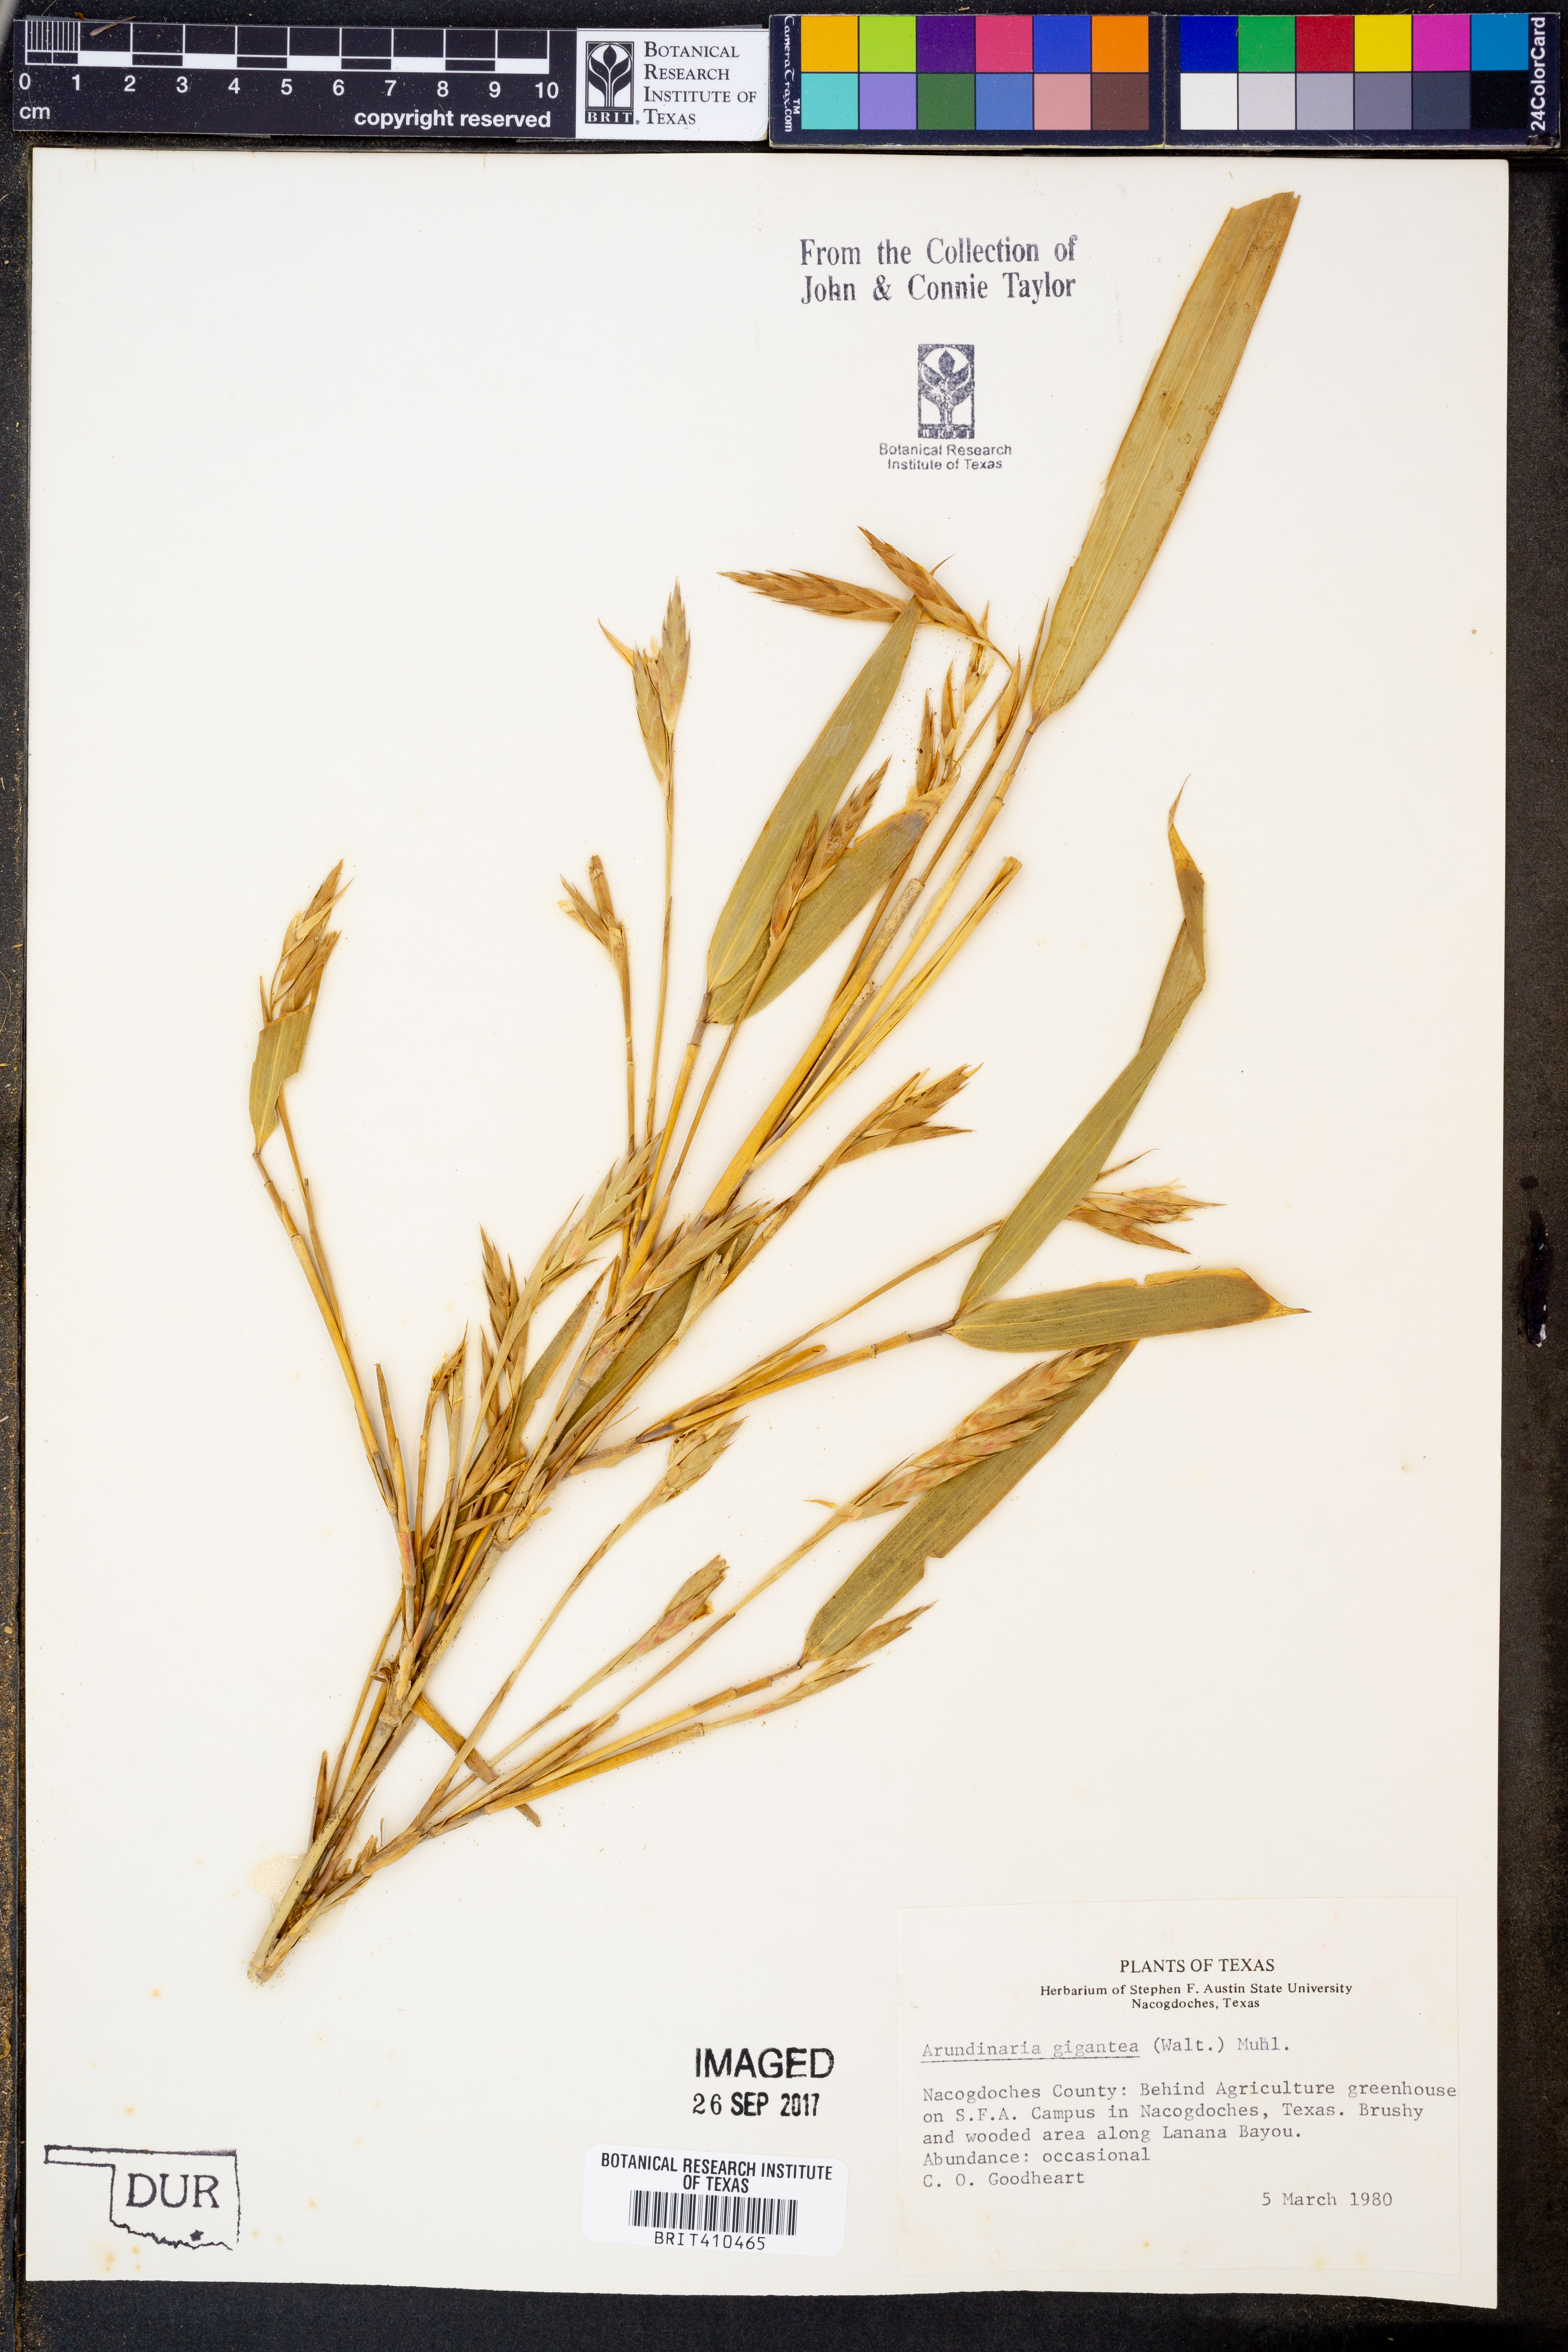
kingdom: Plantae
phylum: Tracheophyta
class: Liliopsida
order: Poales
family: Poaceae
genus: Arundinaria
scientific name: Arundinaria gigantea
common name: Giant cane
